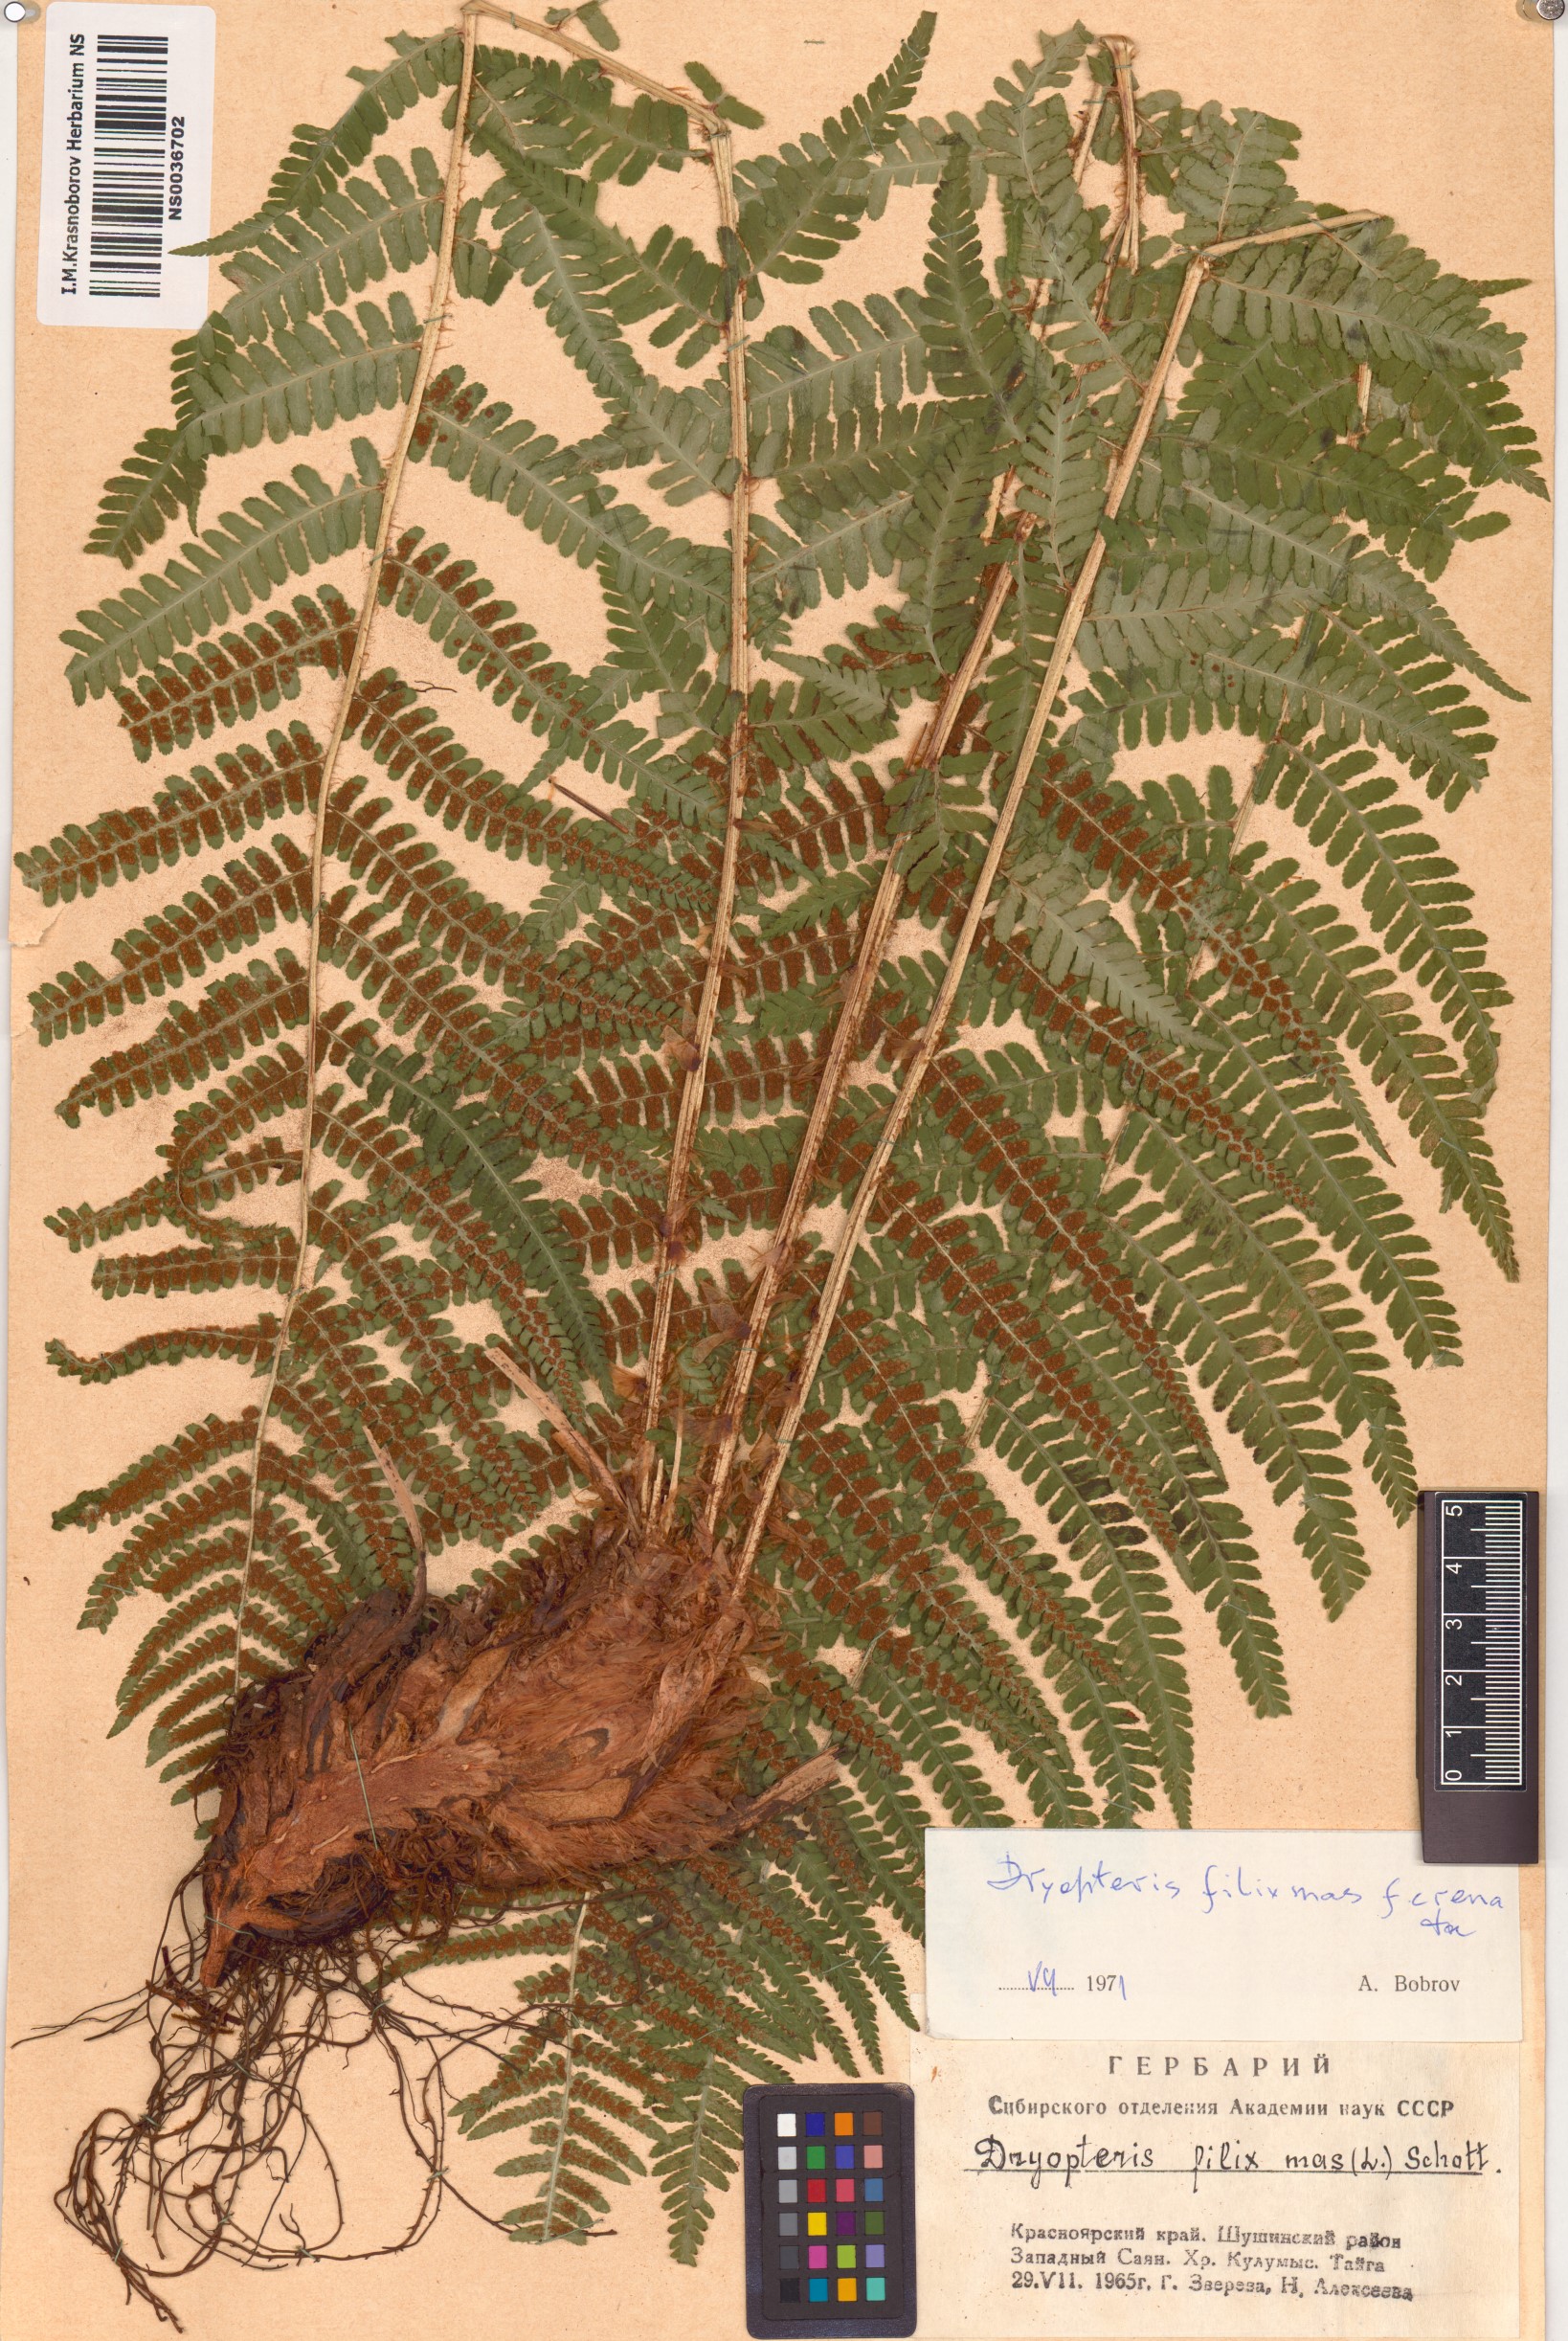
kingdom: Plantae
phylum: Tracheophyta
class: Polypodiopsida
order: Polypodiales
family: Dryopteridaceae
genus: Dryopteris
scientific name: Dryopteris filix-mas
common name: Male fern
